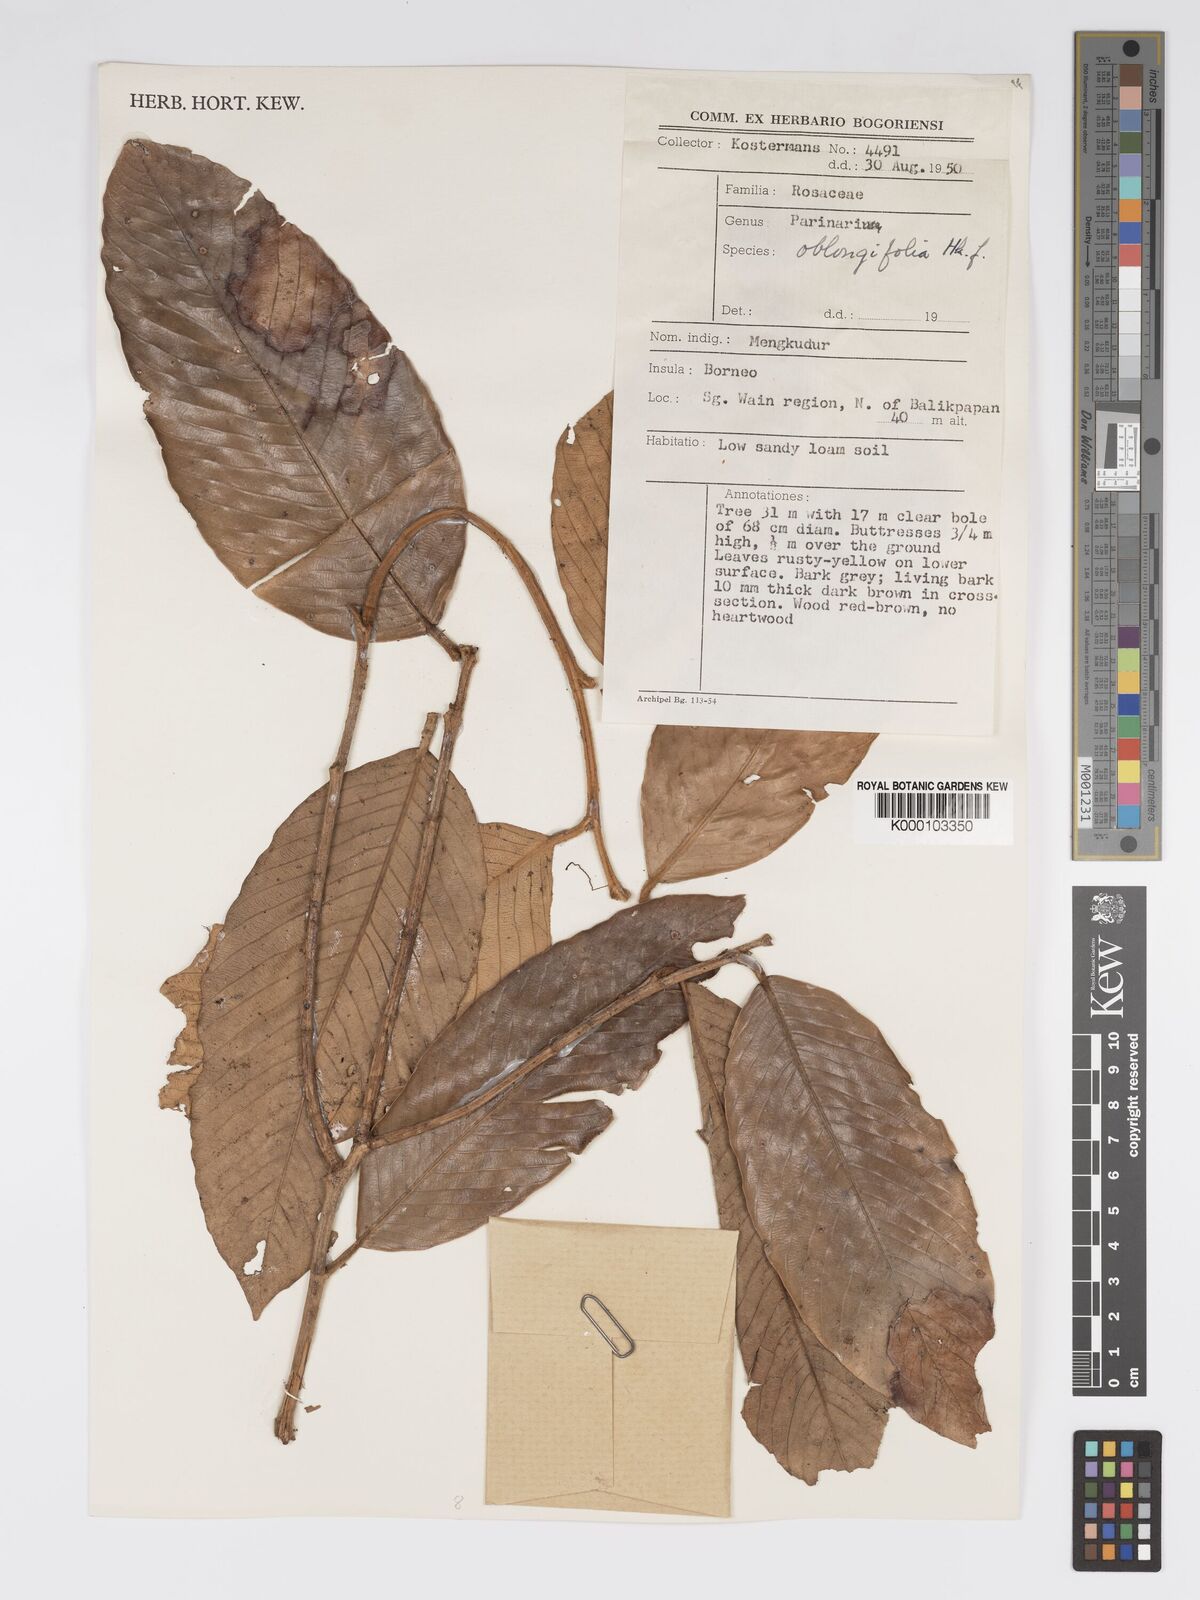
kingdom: Plantae
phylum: Tracheophyta
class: Magnoliopsida
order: Malpighiales
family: Chrysobalanaceae
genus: Parinari
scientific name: Parinari oblongifolia
